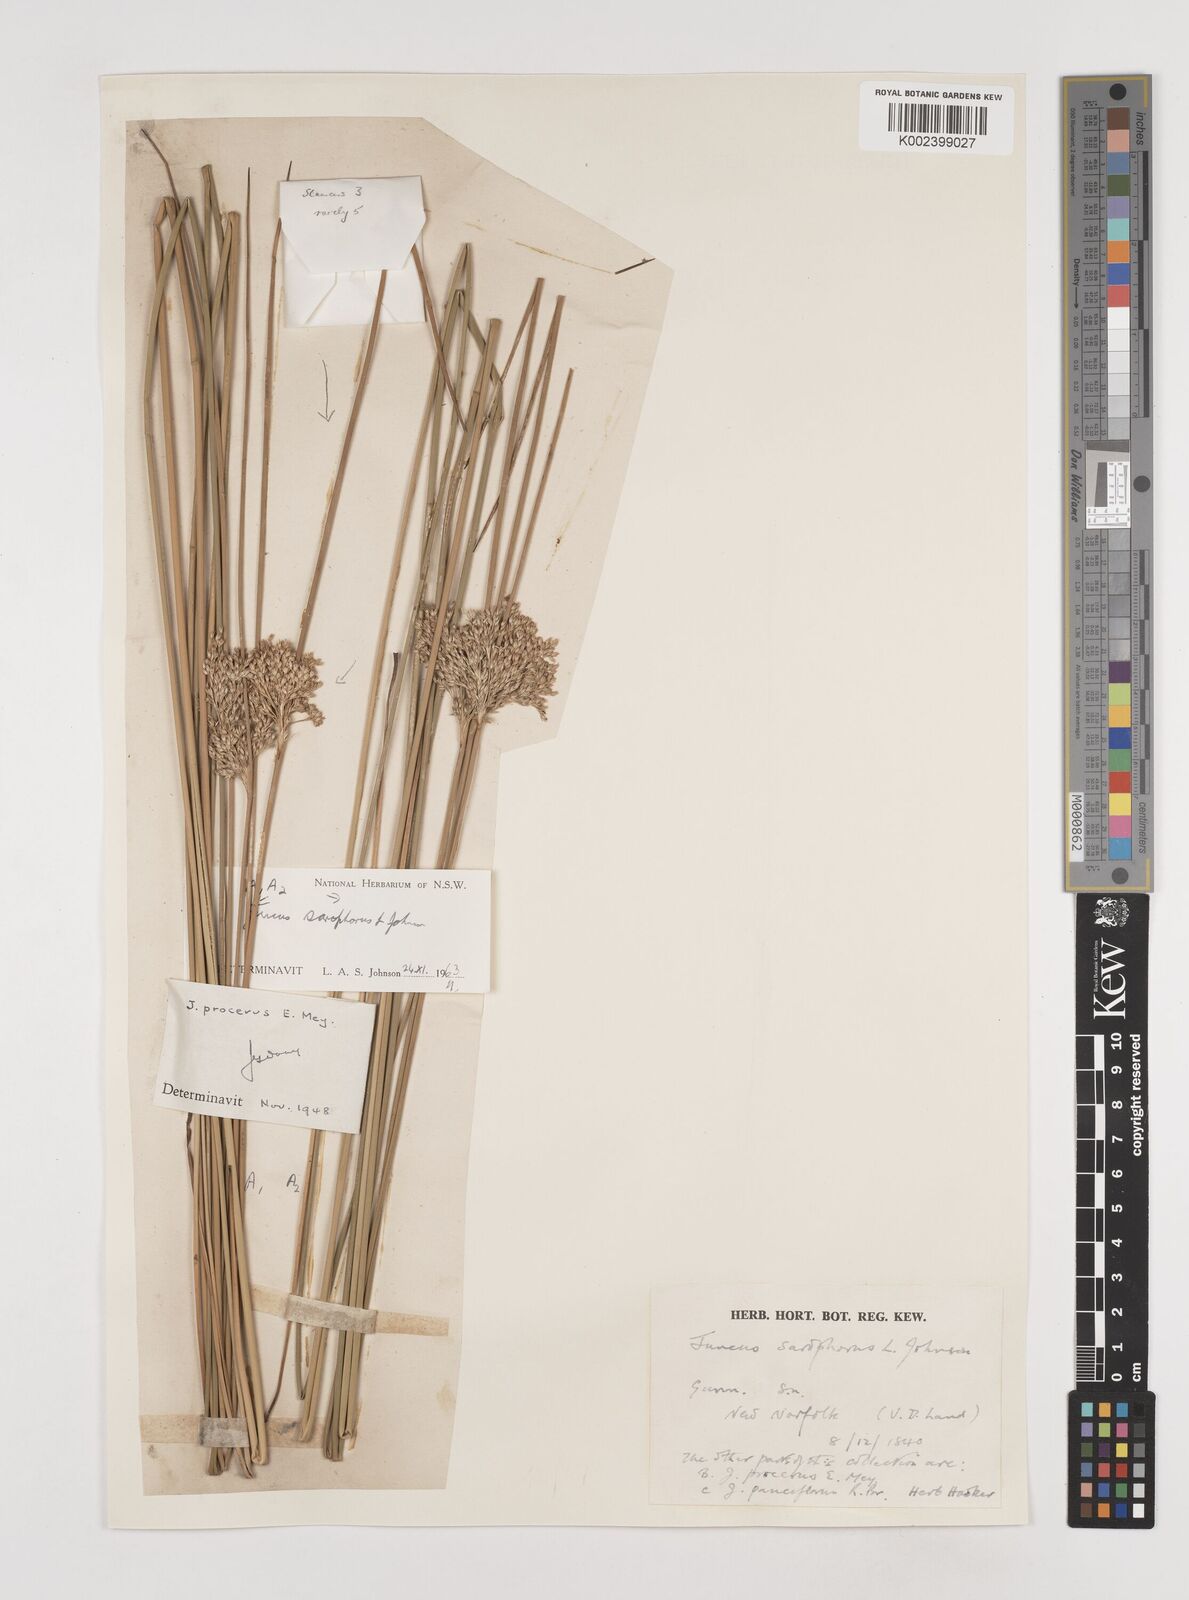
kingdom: Plantae
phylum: Tracheophyta
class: Liliopsida
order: Poales
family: Juncaceae
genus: Juncus
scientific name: Juncus sarophorus
